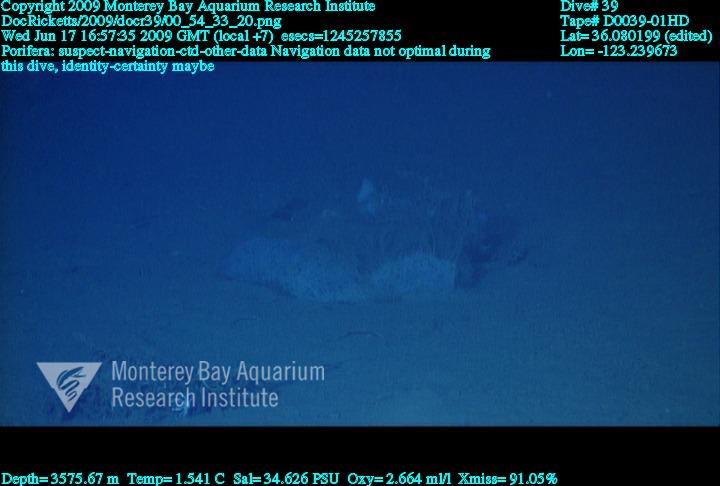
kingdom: Animalia
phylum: Porifera
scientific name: Porifera
